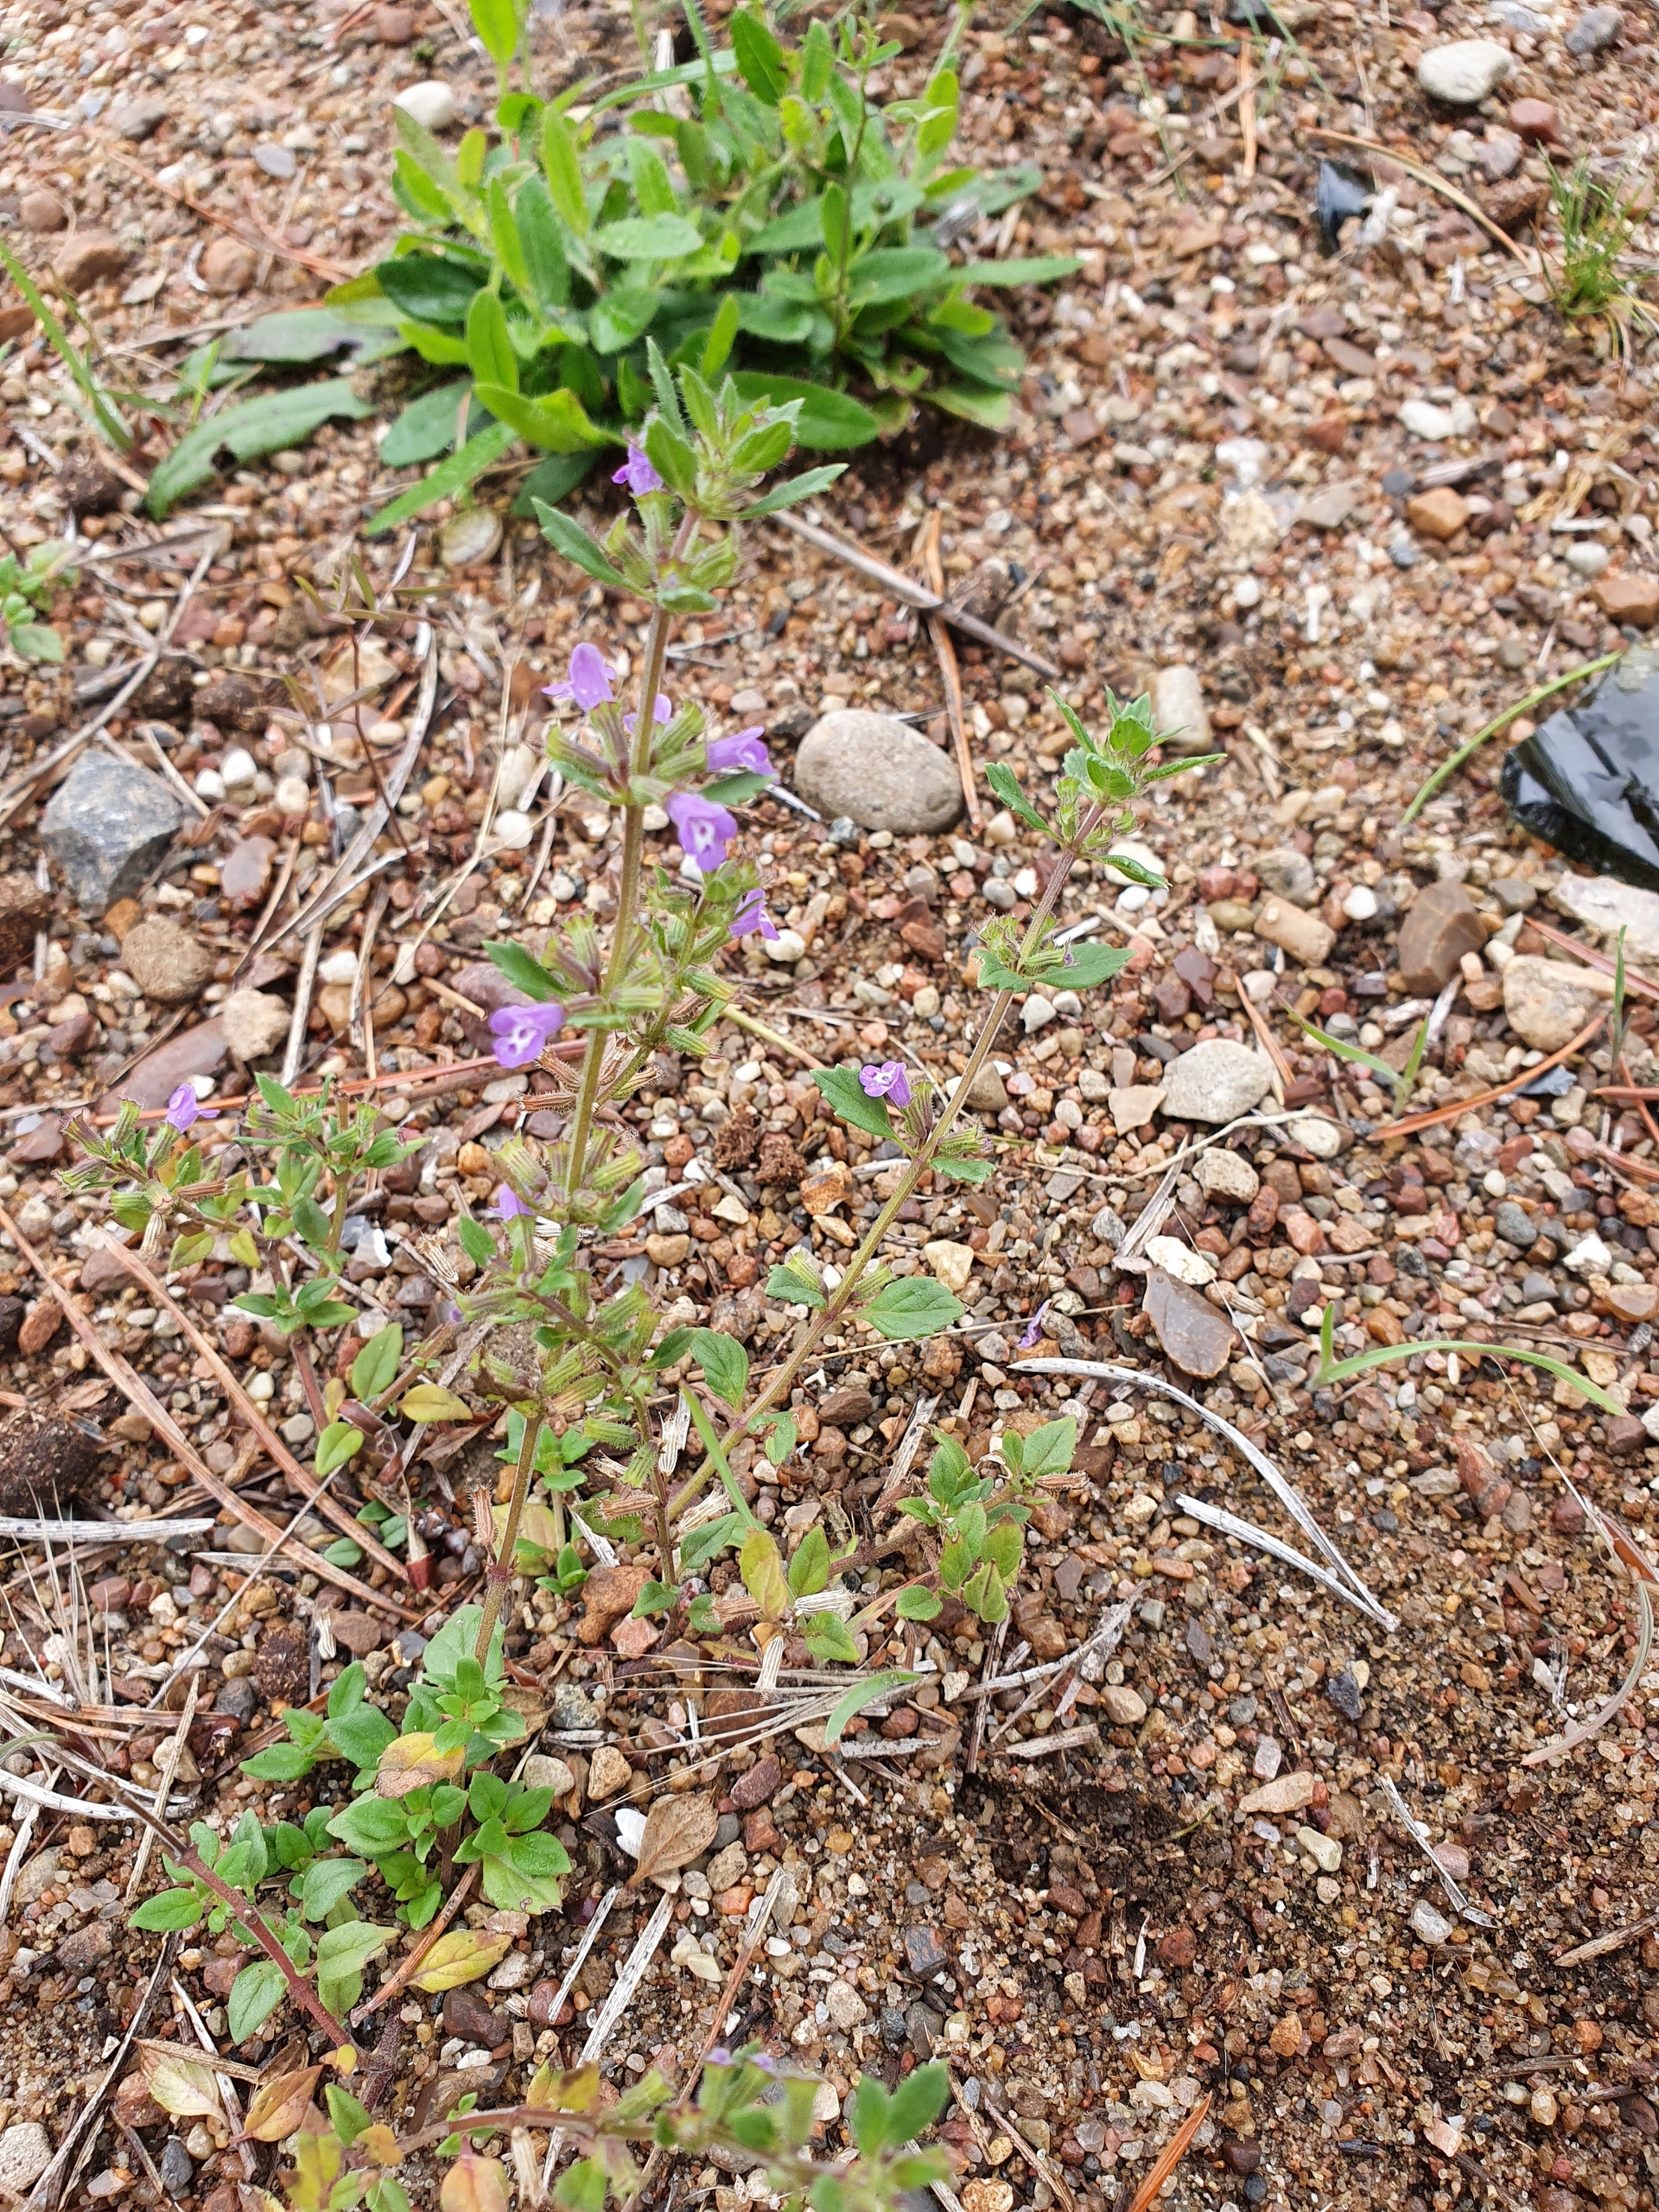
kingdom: Plantae
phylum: Tracheophyta
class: Magnoliopsida
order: Lamiales
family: Lamiaceae
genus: Clinopodium
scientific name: Clinopodium acinos
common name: Voldtimian
